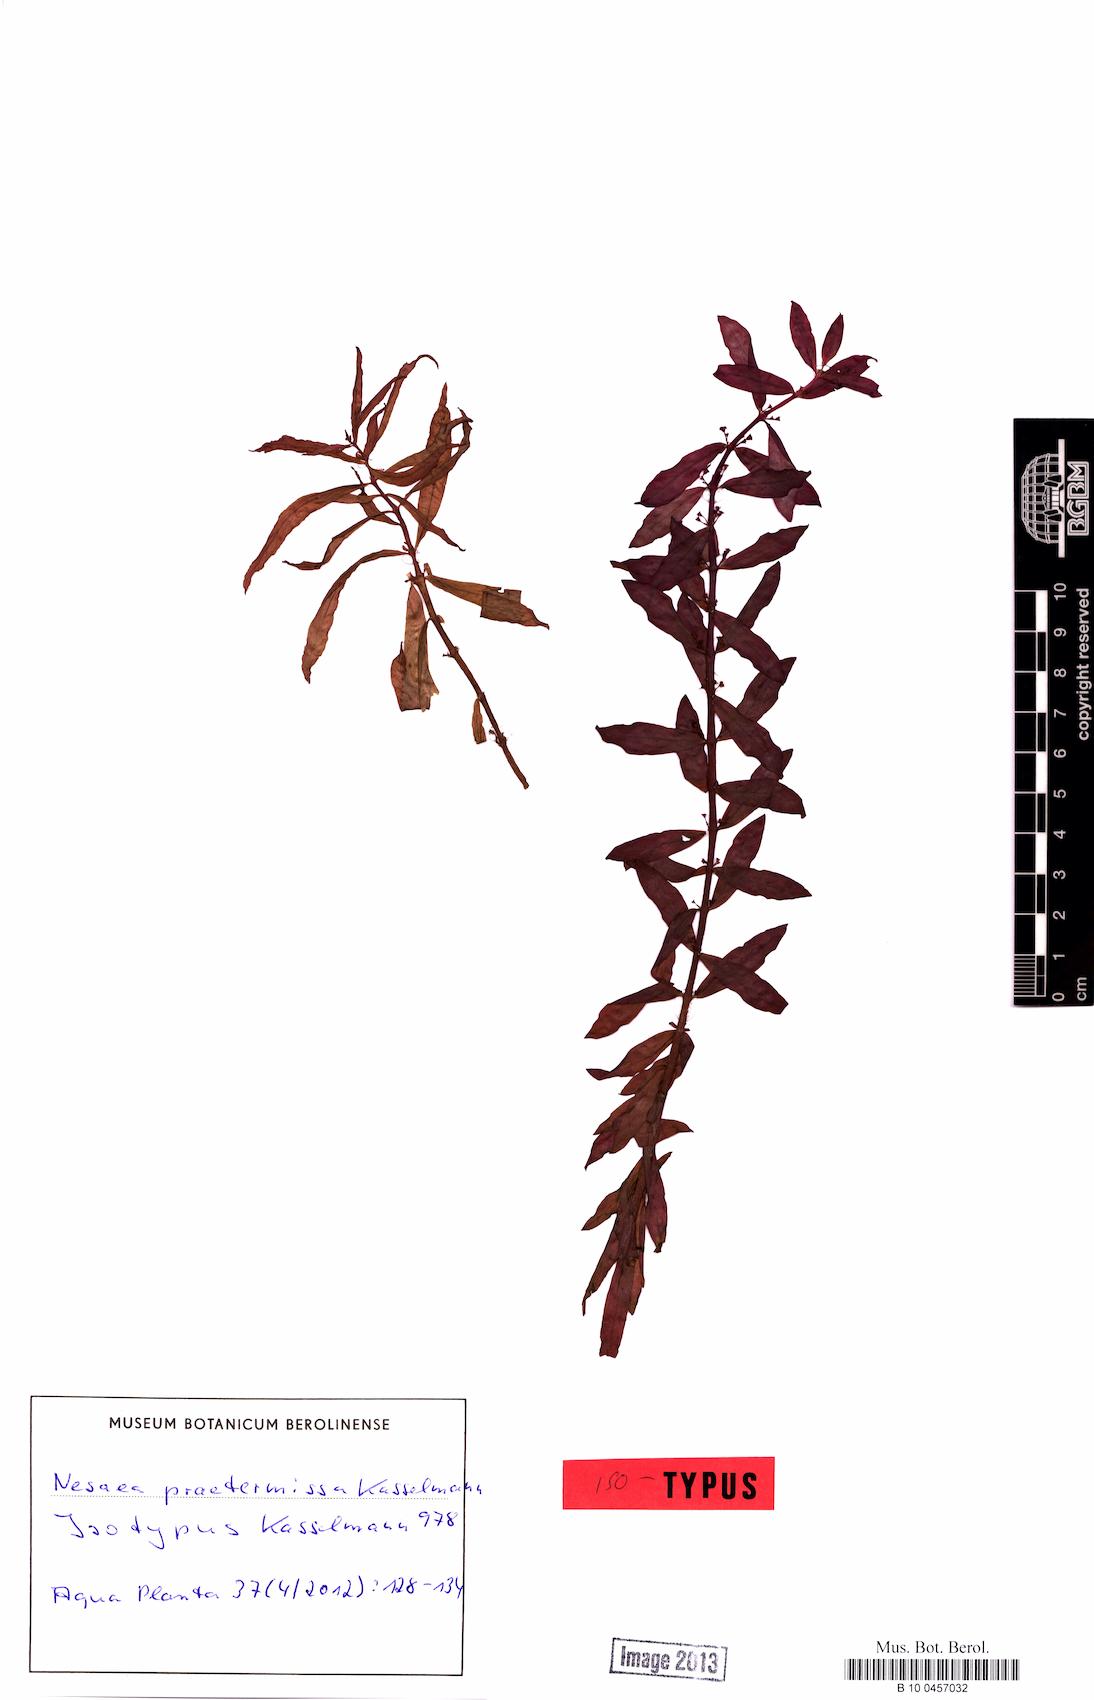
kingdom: Plantae
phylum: Tracheophyta
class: Magnoliopsida
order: Myrtales
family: Lythraceae
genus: Ammannia
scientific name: Ammannia praetermissa
